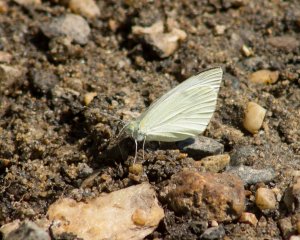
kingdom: Animalia
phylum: Arthropoda
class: Insecta
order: Lepidoptera
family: Pieridae
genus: Pieris
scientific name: Pieris rapae
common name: Cabbage White
